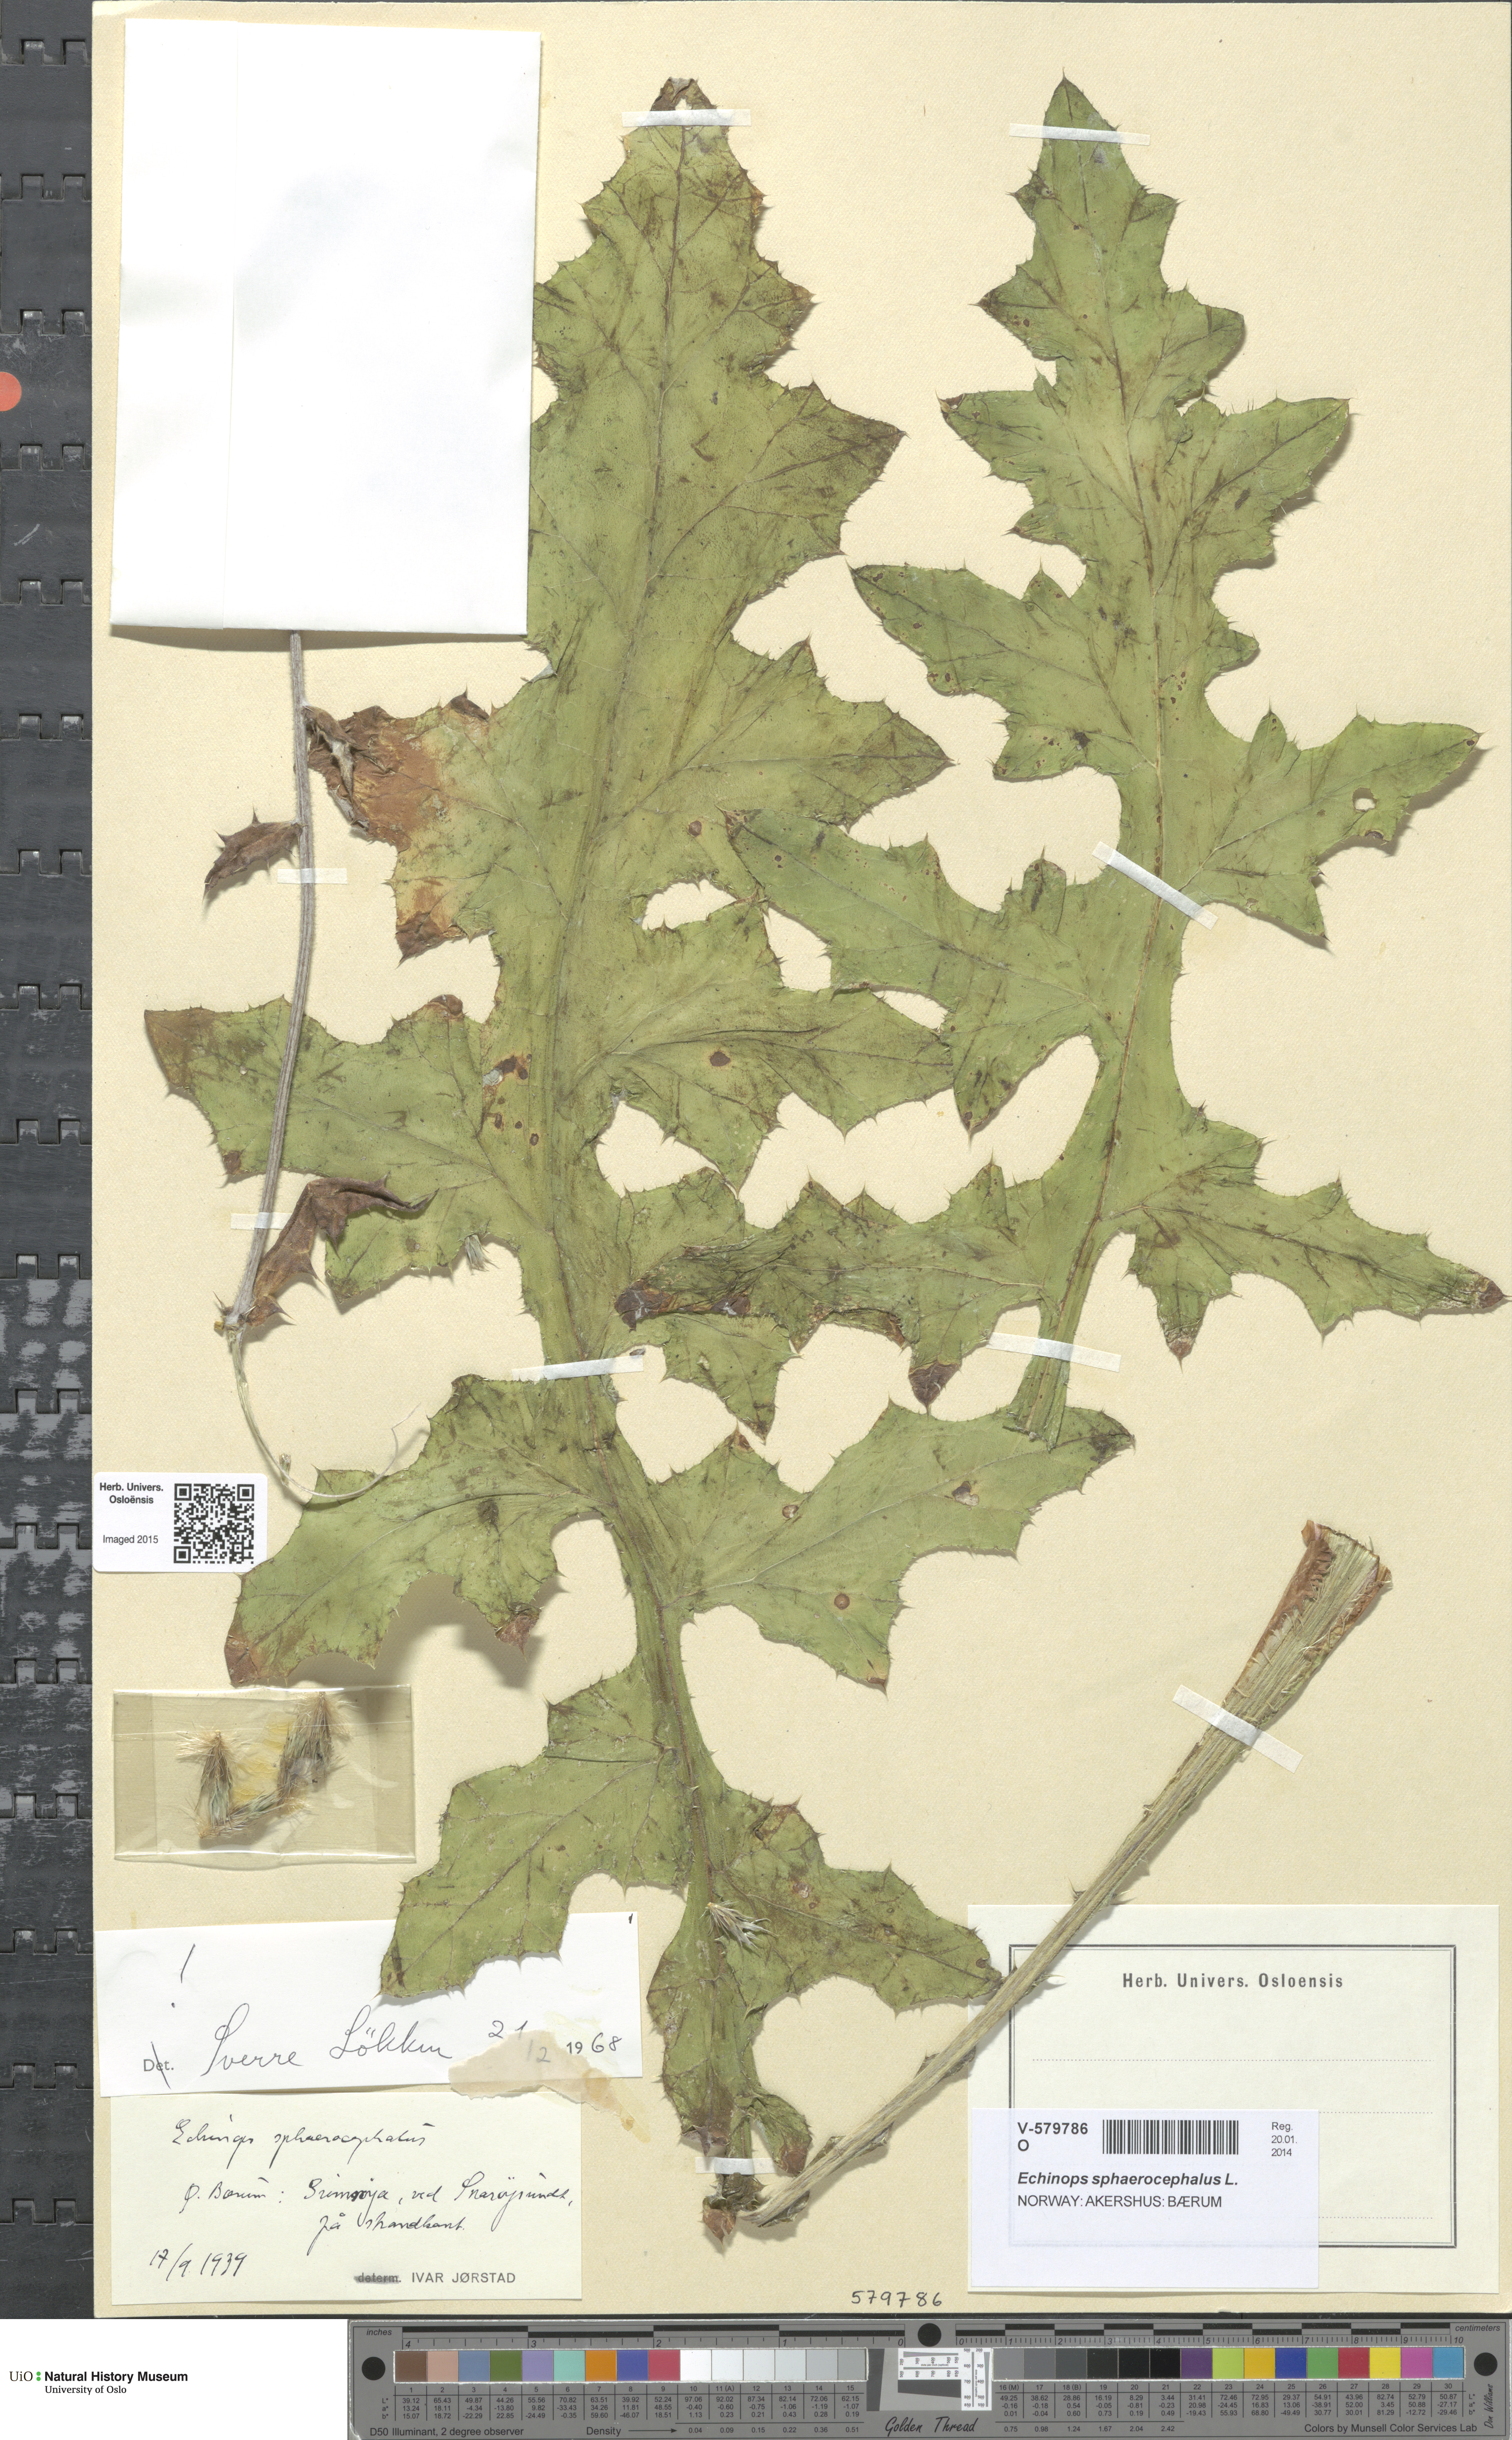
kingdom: Plantae
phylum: Tracheophyta
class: Magnoliopsida
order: Asterales
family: Asteraceae
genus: Echinops
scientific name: Echinops sphaerocephalus
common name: Glandular globe-thistle
